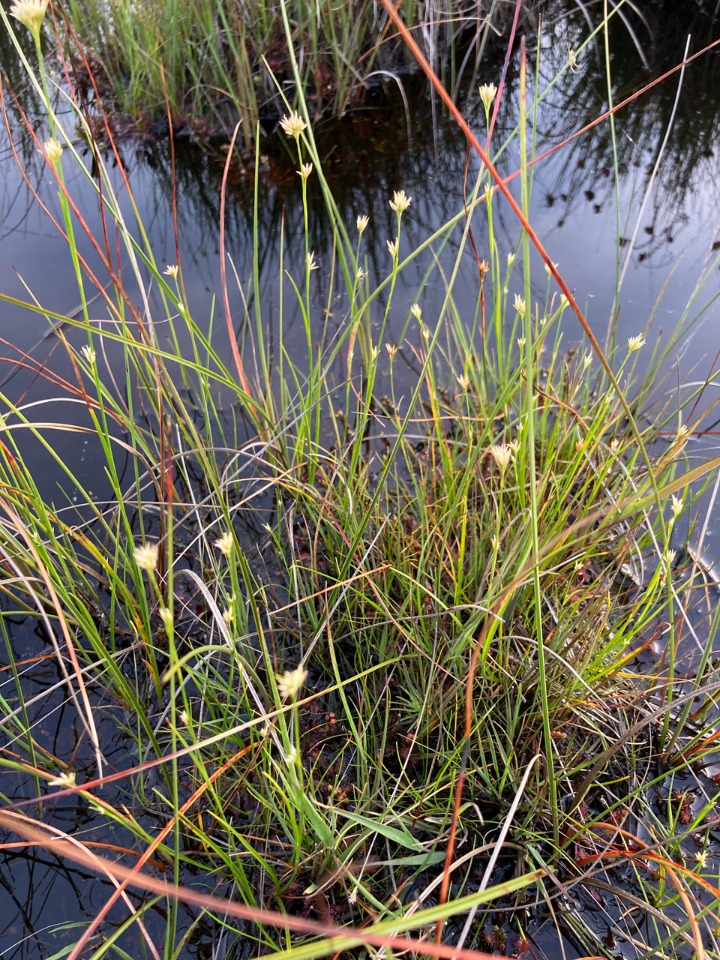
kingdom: Plantae
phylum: Tracheophyta
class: Liliopsida
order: Poales
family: Cyperaceae
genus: Rhynchospora
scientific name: Rhynchospora alba
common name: Hvid næbfrø
